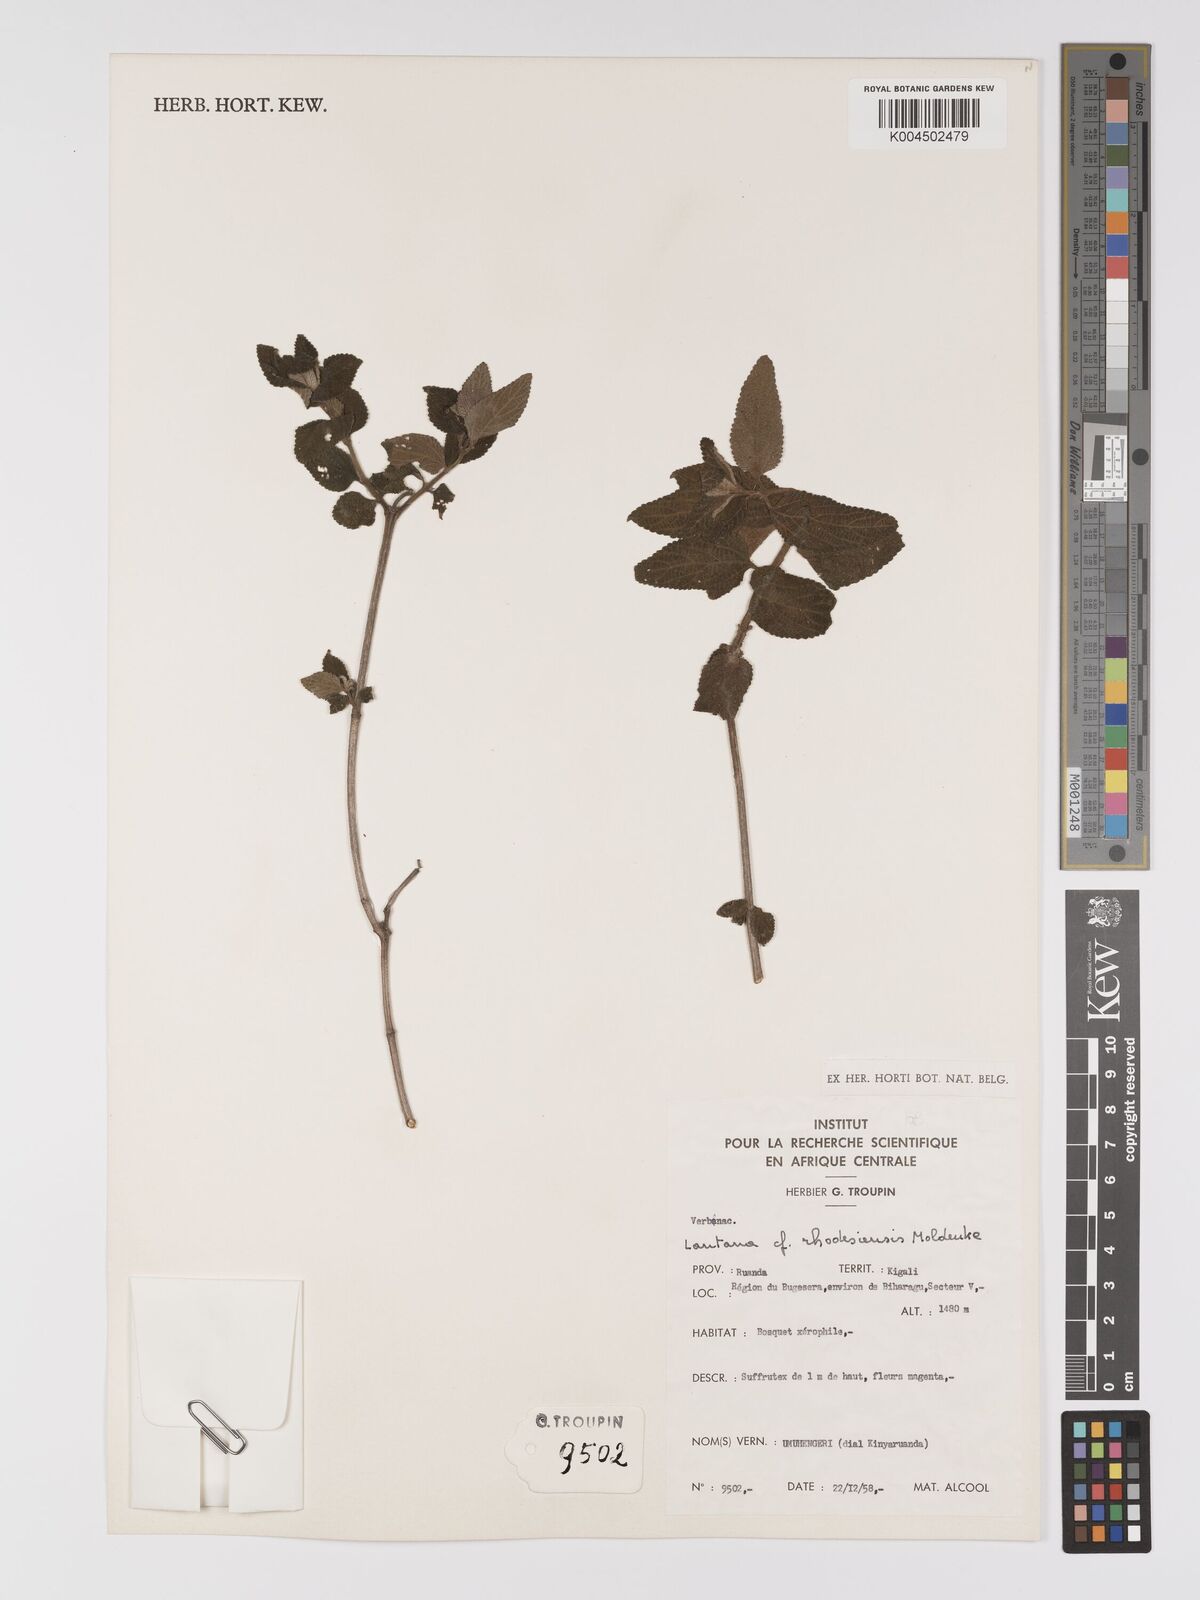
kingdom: Plantae
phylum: Tracheophyta
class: Magnoliopsida
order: Lamiales
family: Verbenaceae
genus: Lantana
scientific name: Lantana ukambensis
